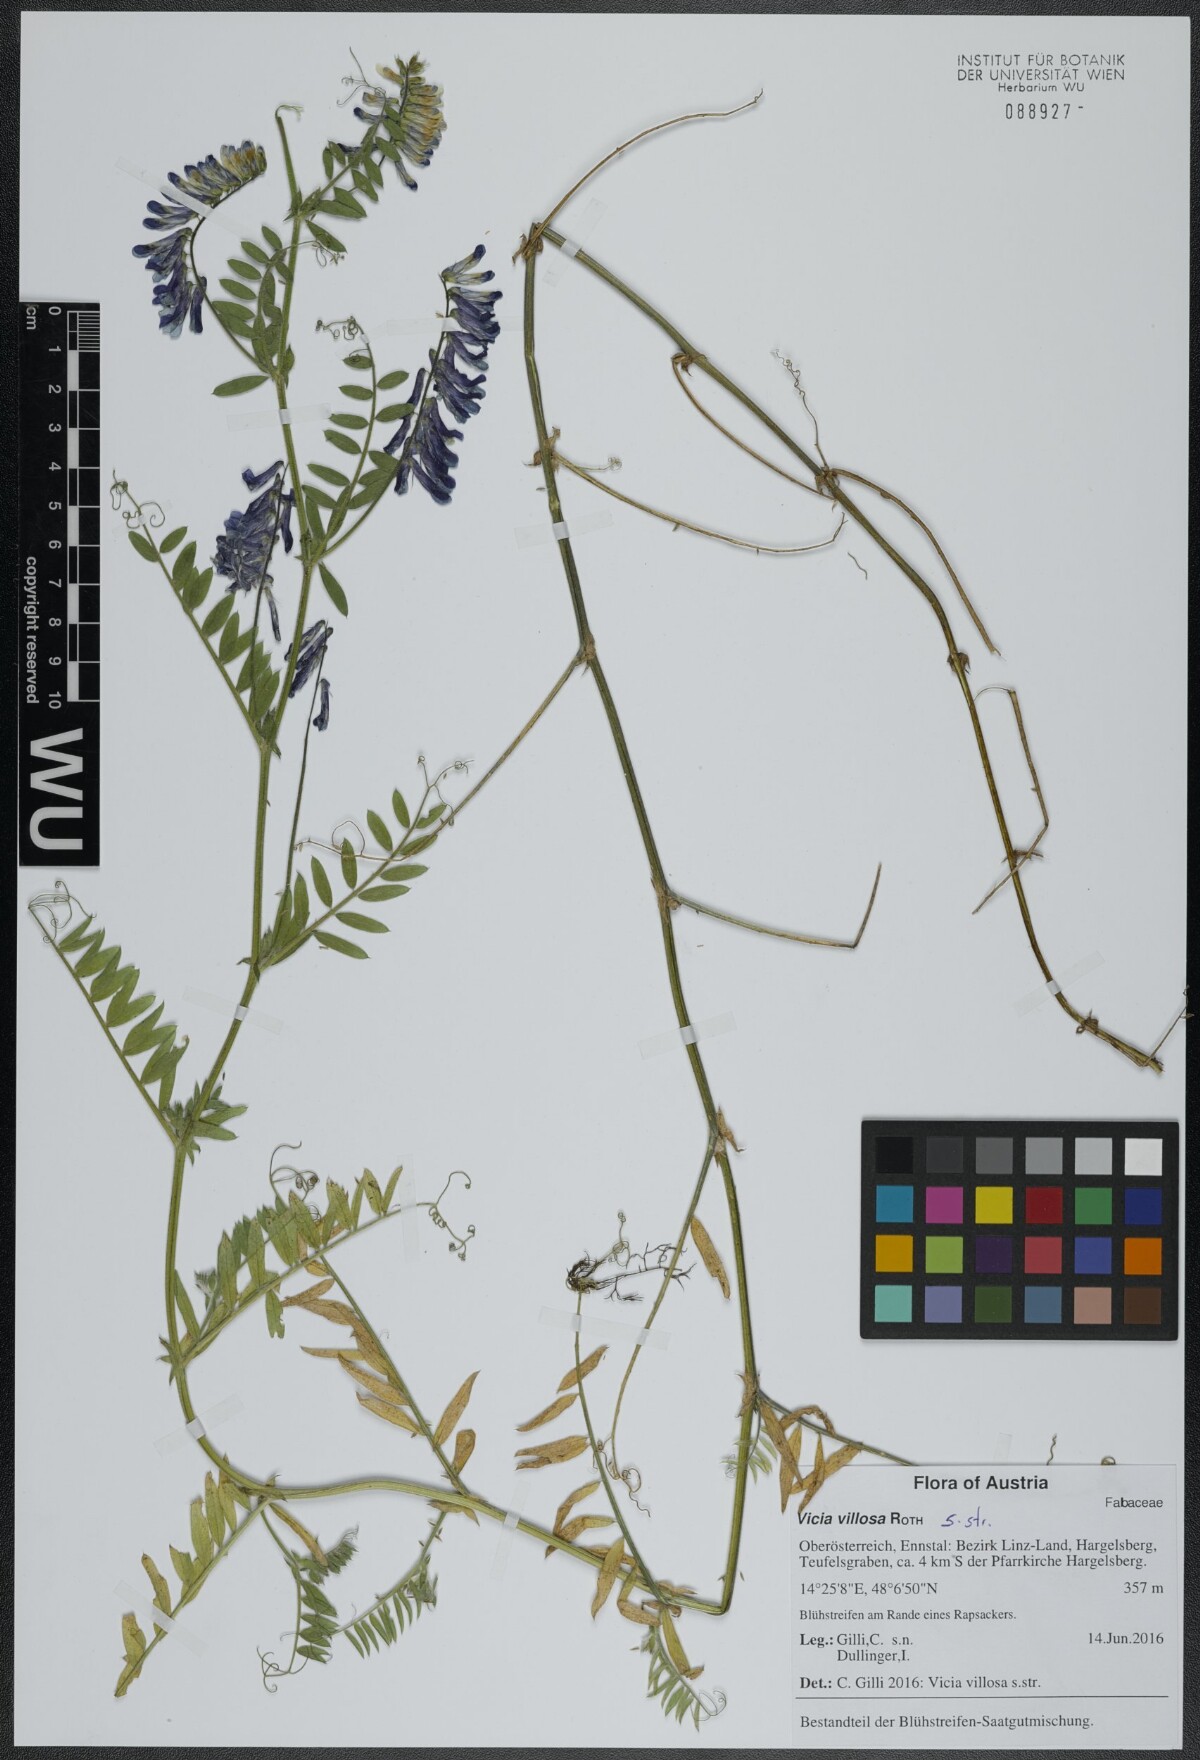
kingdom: Plantae
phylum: Tracheophyta
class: Magnoliopsida
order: Fabales
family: Fabaceae
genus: Vicia
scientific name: Vicia villosa
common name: Fodder vetch
